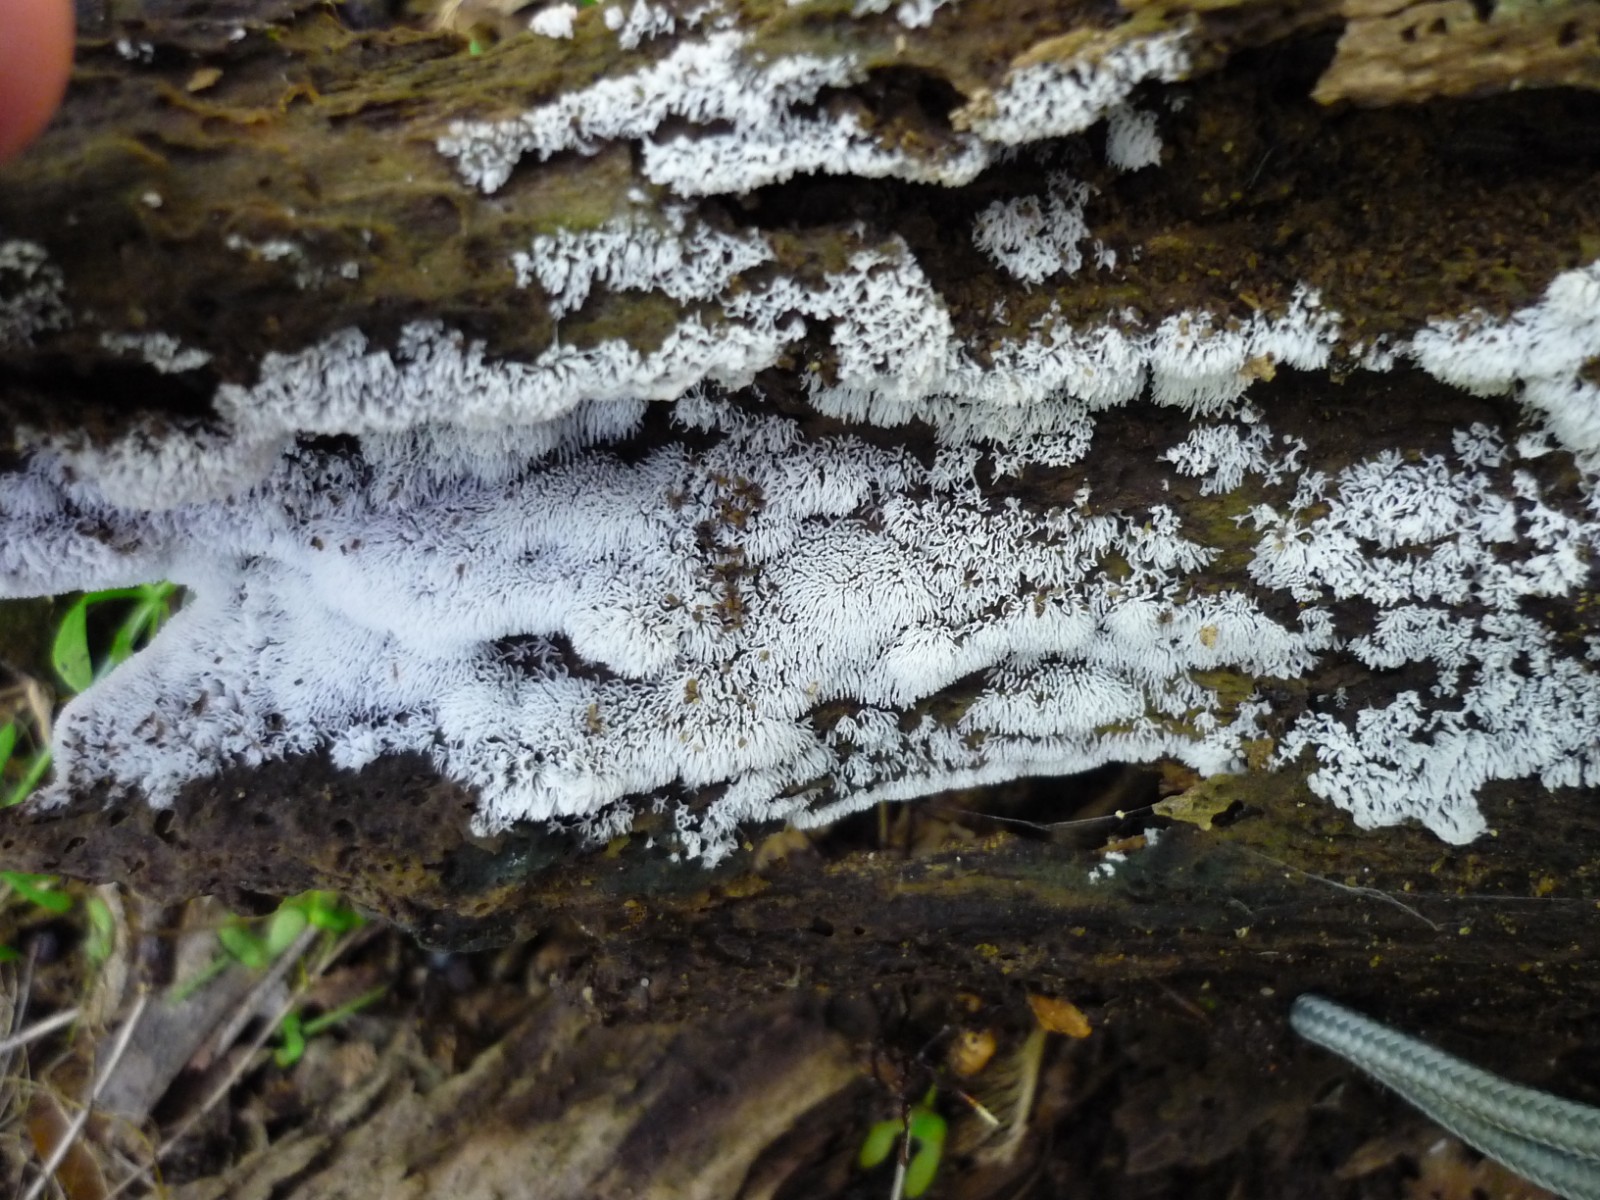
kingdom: Protozoa
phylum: Mycetozoa
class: Protosteliomycetes
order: Ceratiomyxales
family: Ceratiomyxaceae
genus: Ceratiomyxa
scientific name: Ceratiomyxa fruticulosa
